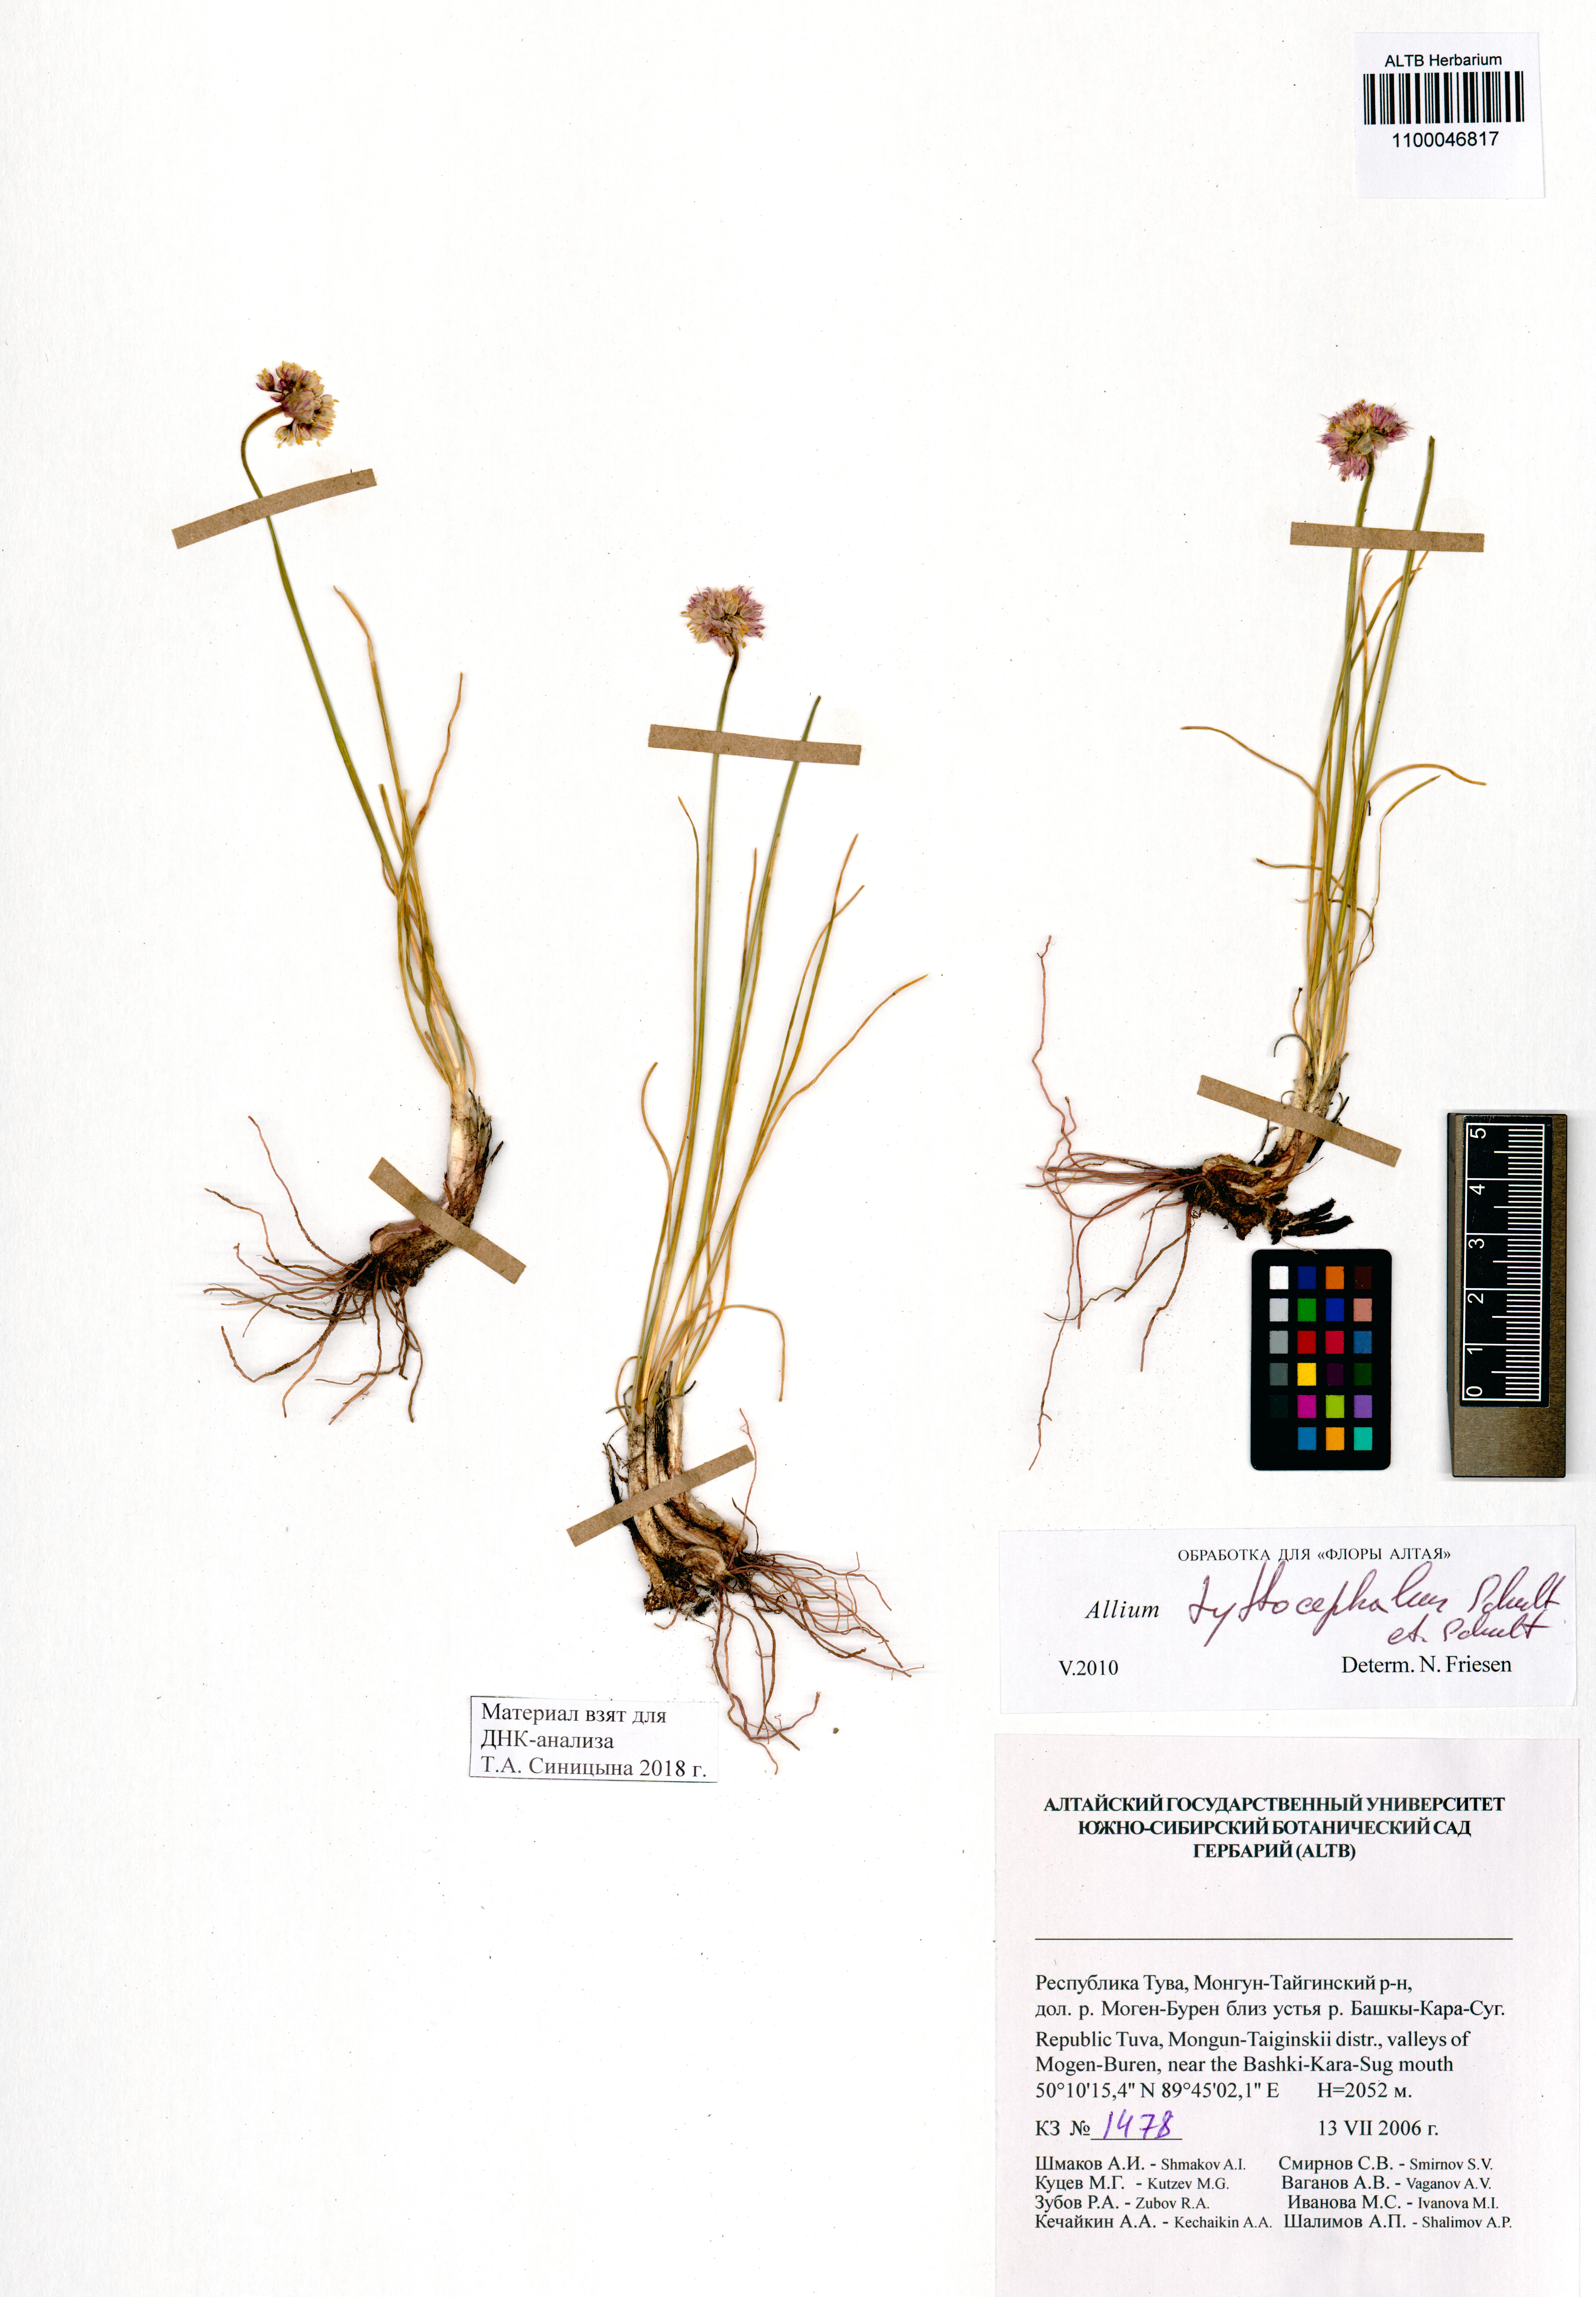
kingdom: Plantae
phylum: Tracheophyta
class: Liliopsida
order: Asparagales
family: Amaryllidaceae
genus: Allium
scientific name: Allium tytthocephalum
